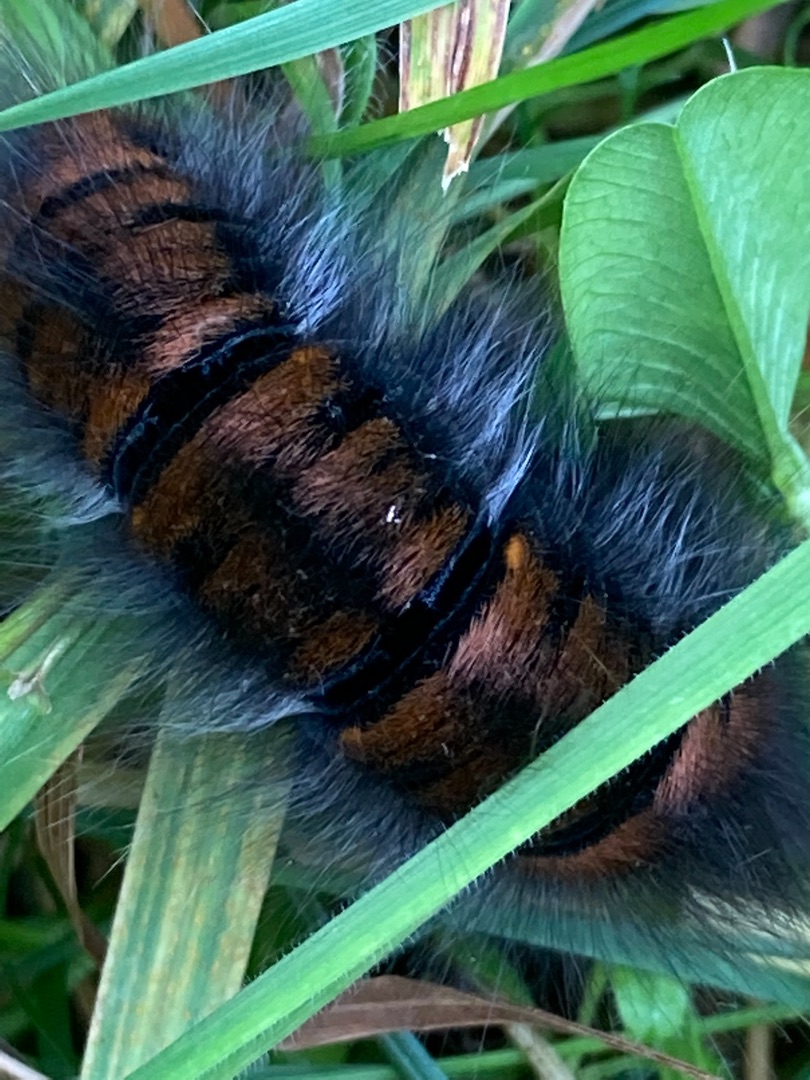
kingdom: Animalia
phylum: Arthropoda
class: Insecta
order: Lepidoptera
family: Lasiocampidae
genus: Macrothylacia
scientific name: Macrothylacia rubi
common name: Brombærspinder
